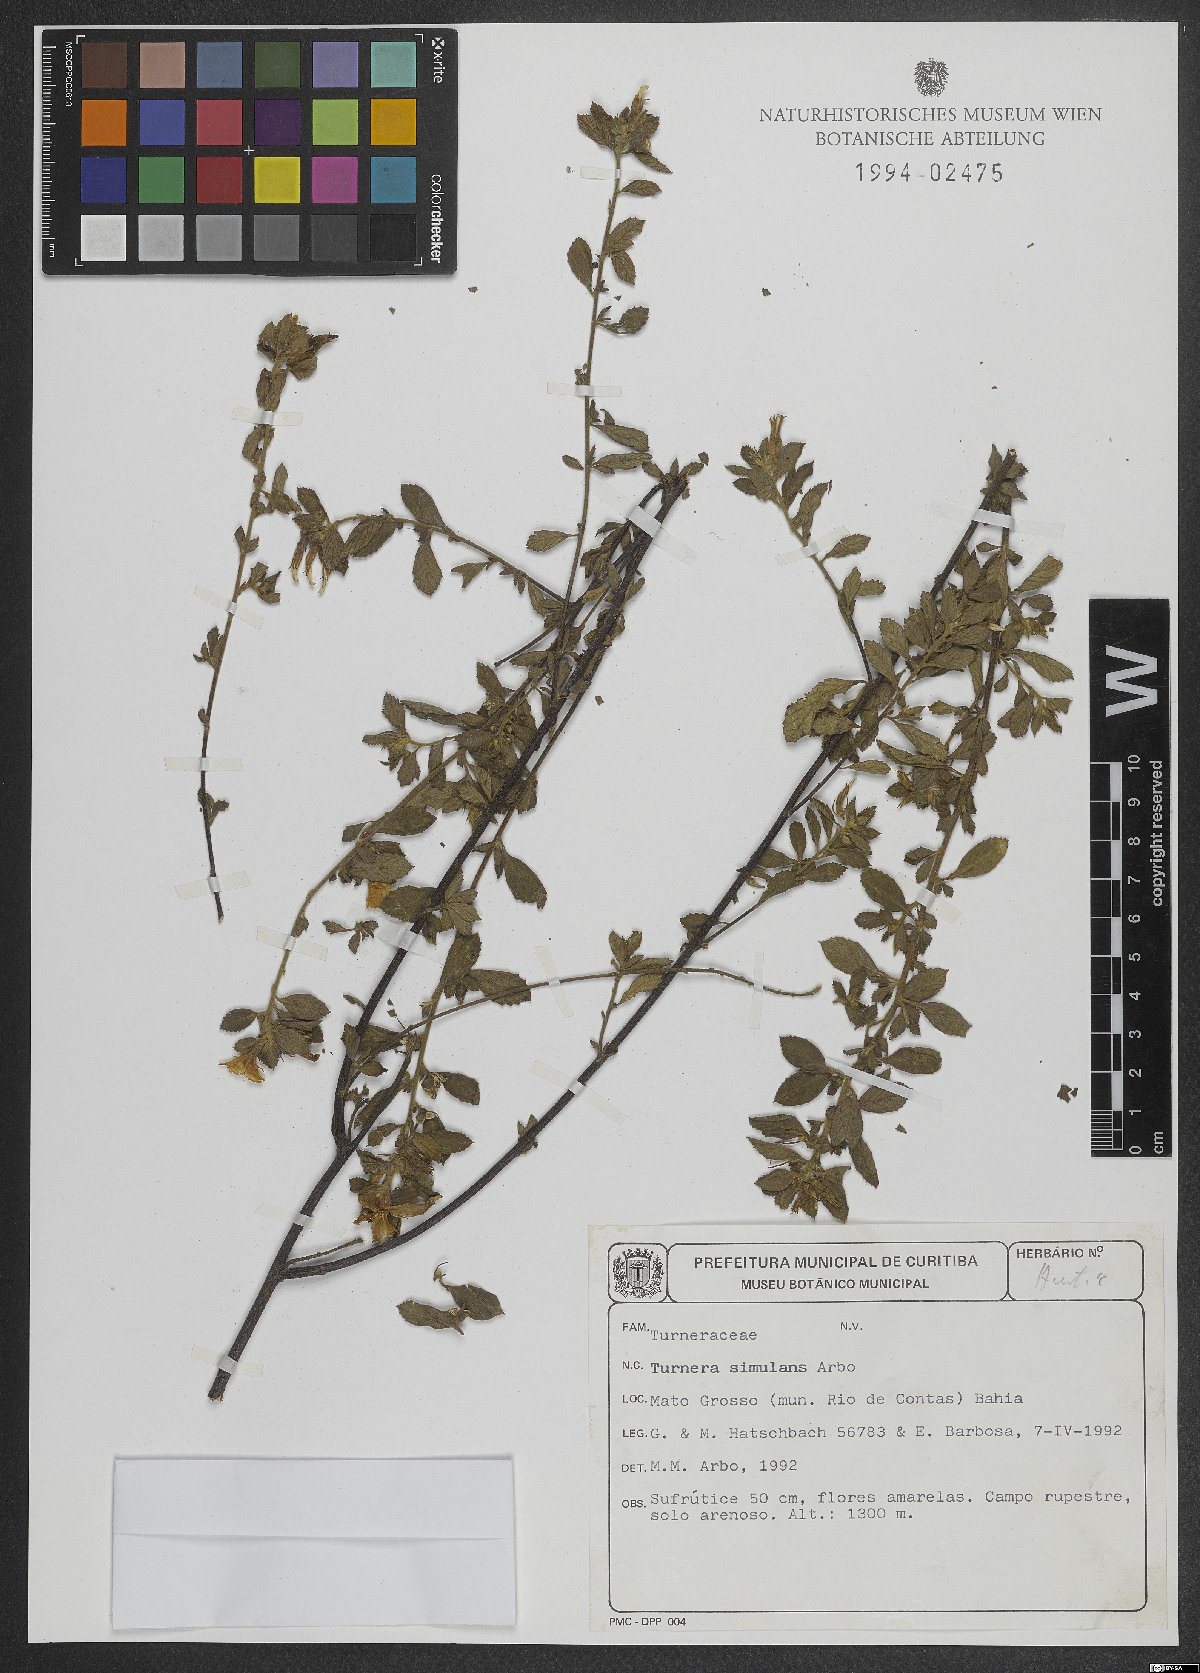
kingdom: Plantae
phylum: Tracheophyta
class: Magnoliopsida
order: Malpighiales
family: Turneraceae
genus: Turnera
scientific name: Turnera simulans
